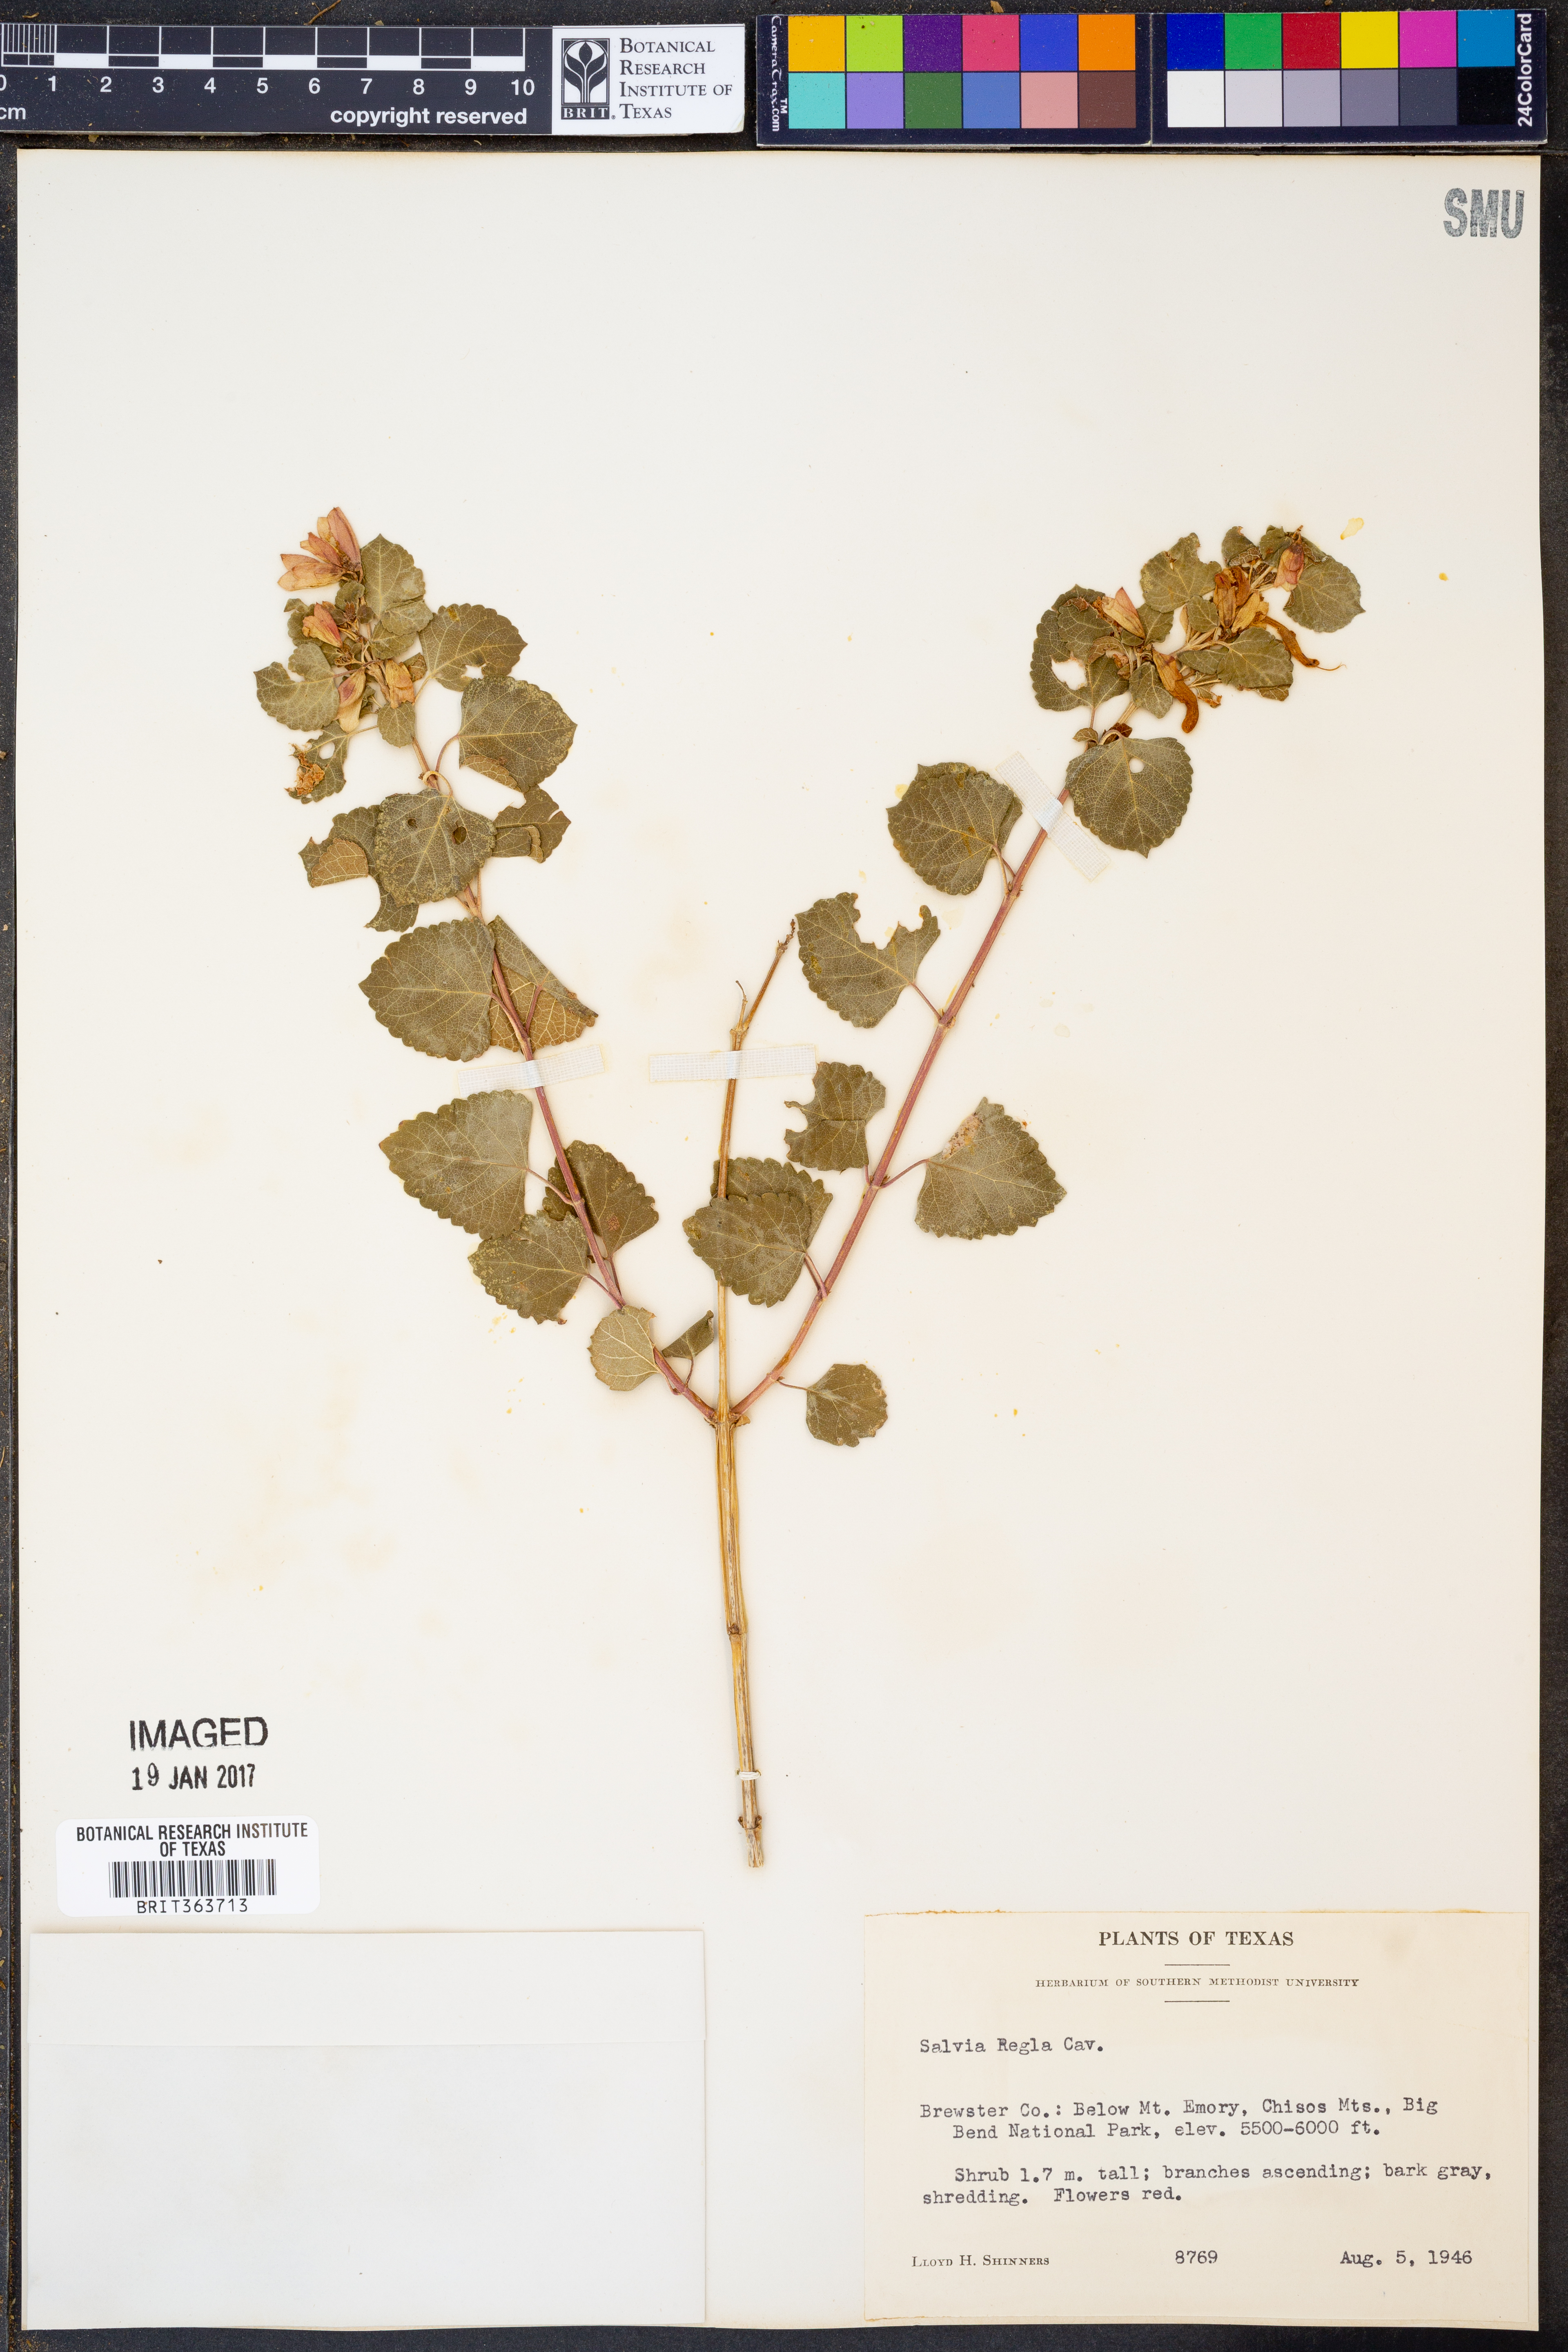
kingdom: Plantae
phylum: Tracheophyta
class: Magnoliopsida
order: Lamiales
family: Lamiaceae
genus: Salvia
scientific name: Salvia regla
